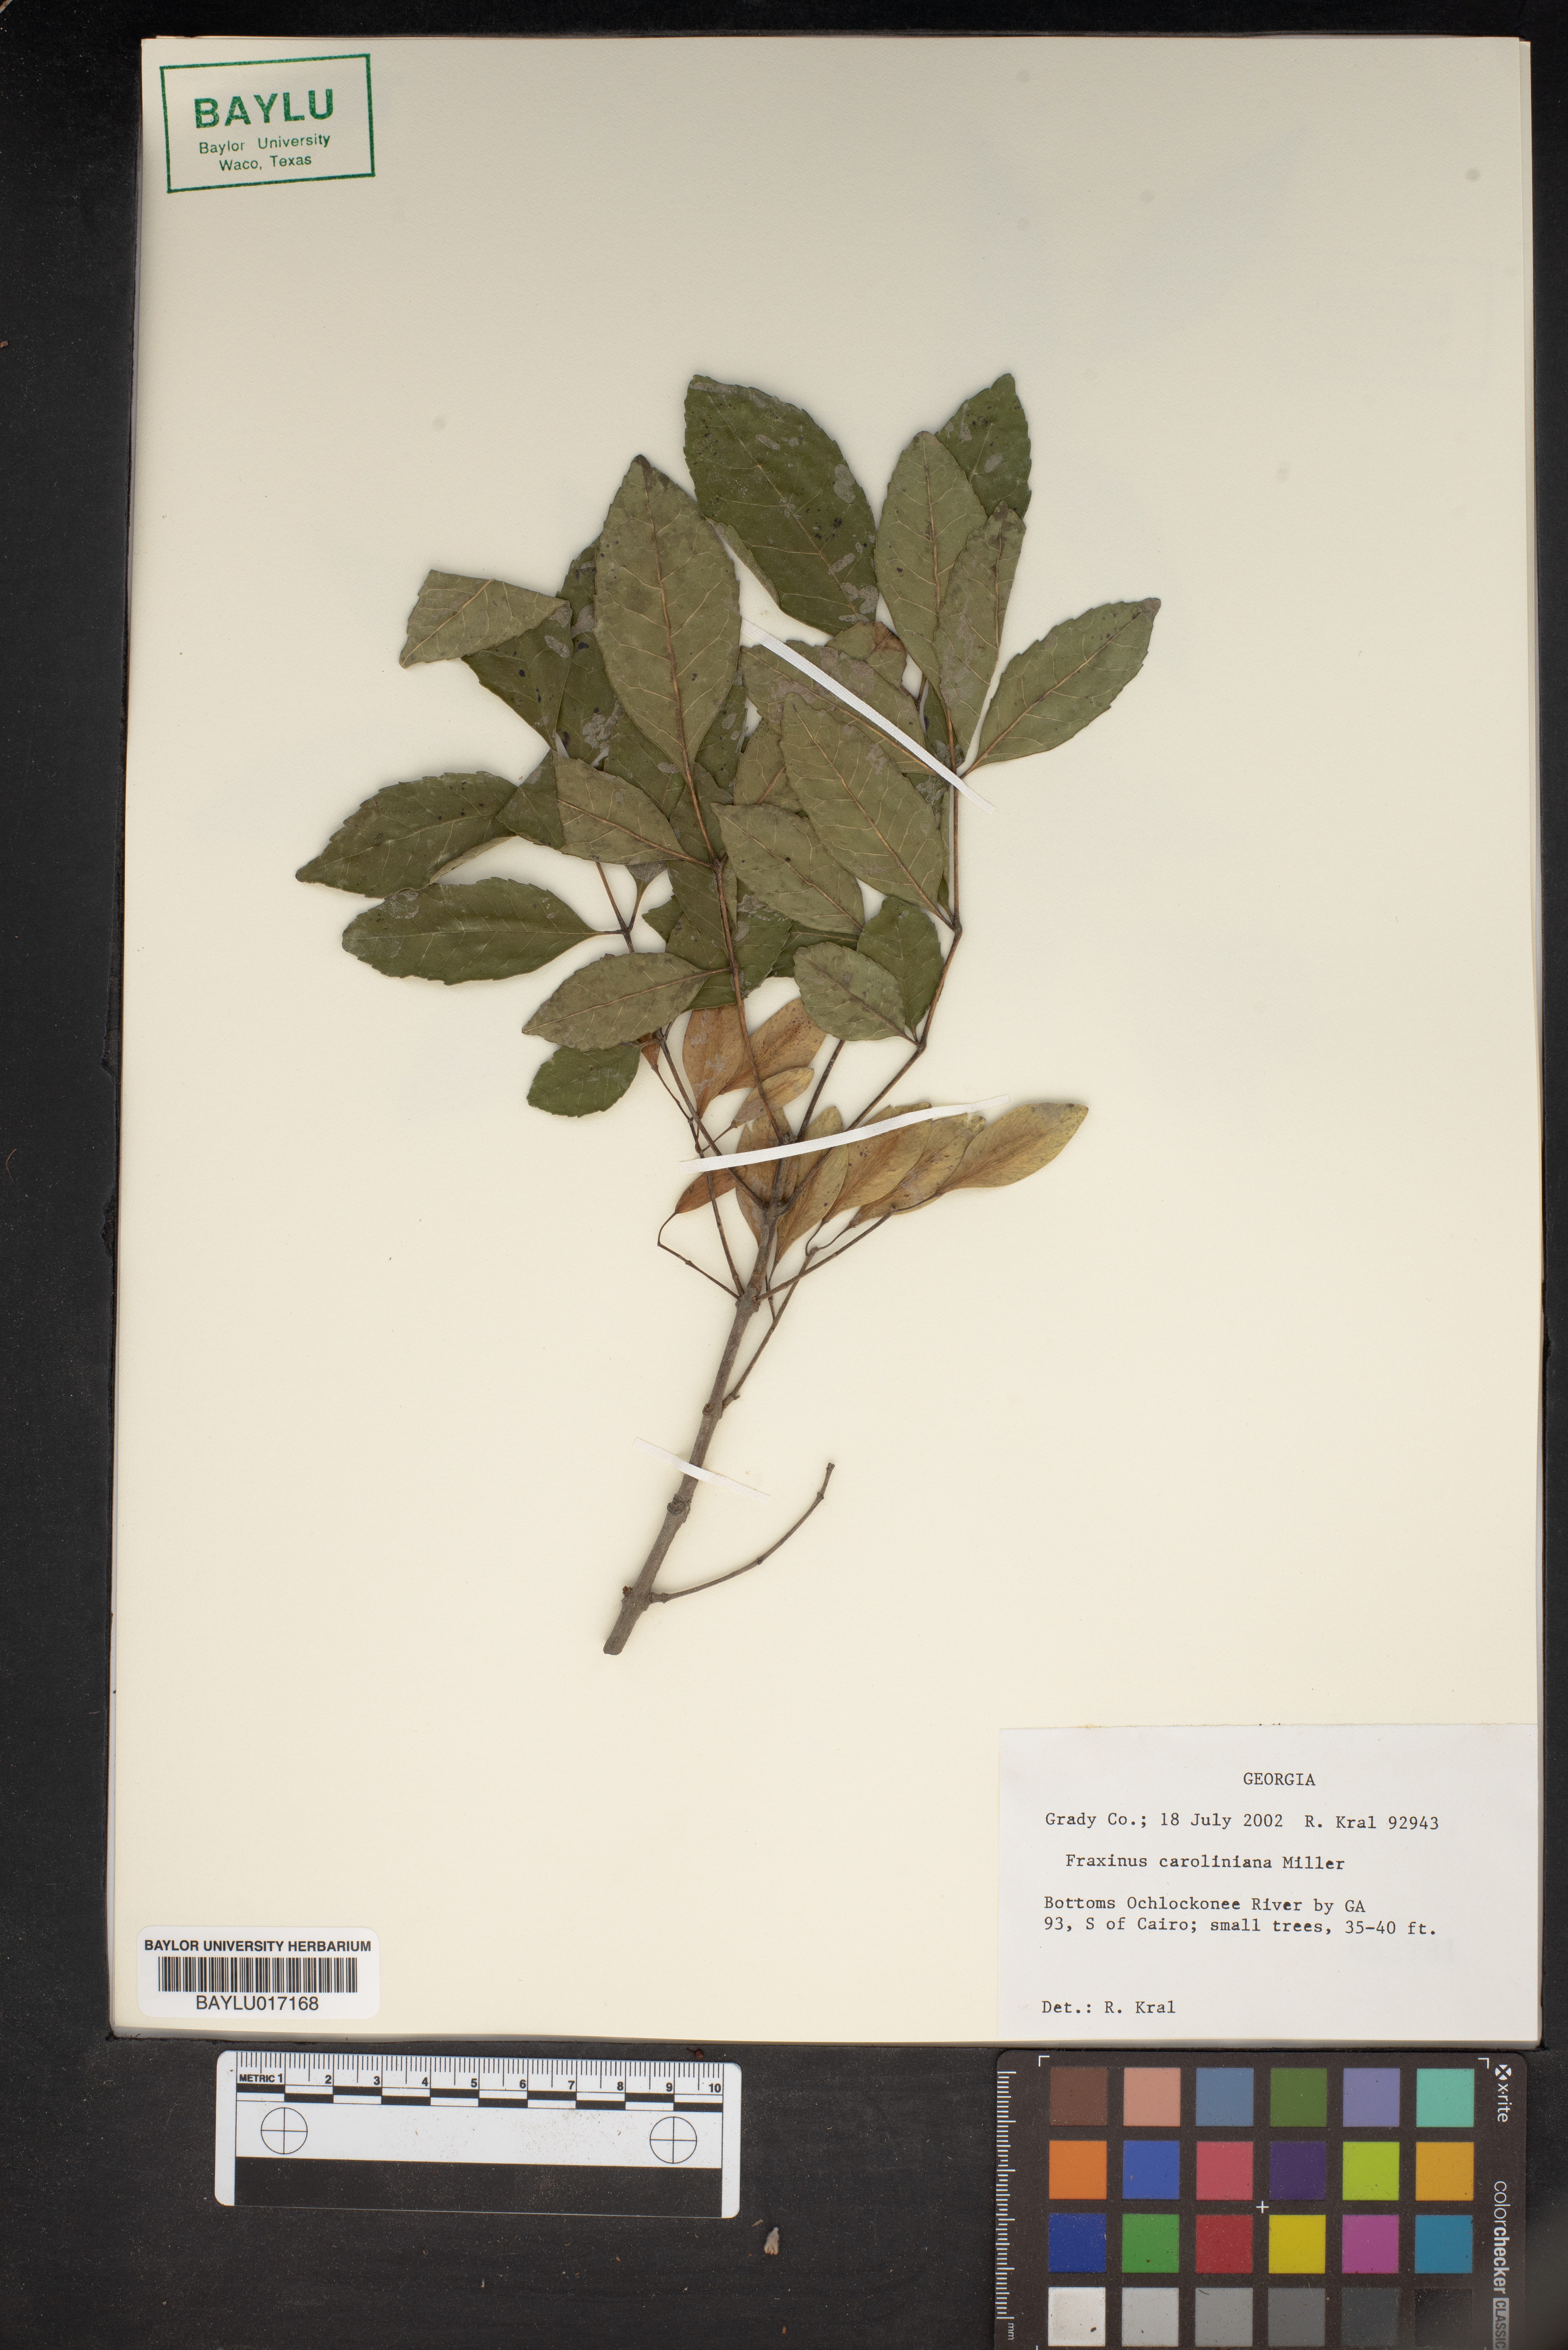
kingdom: Plantae
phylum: Tracheophyta
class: Magnoliopsida
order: Lamiales
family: Oleaceae
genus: Fraxinus
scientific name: Fraxinus caroliniana
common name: Carolina ash
